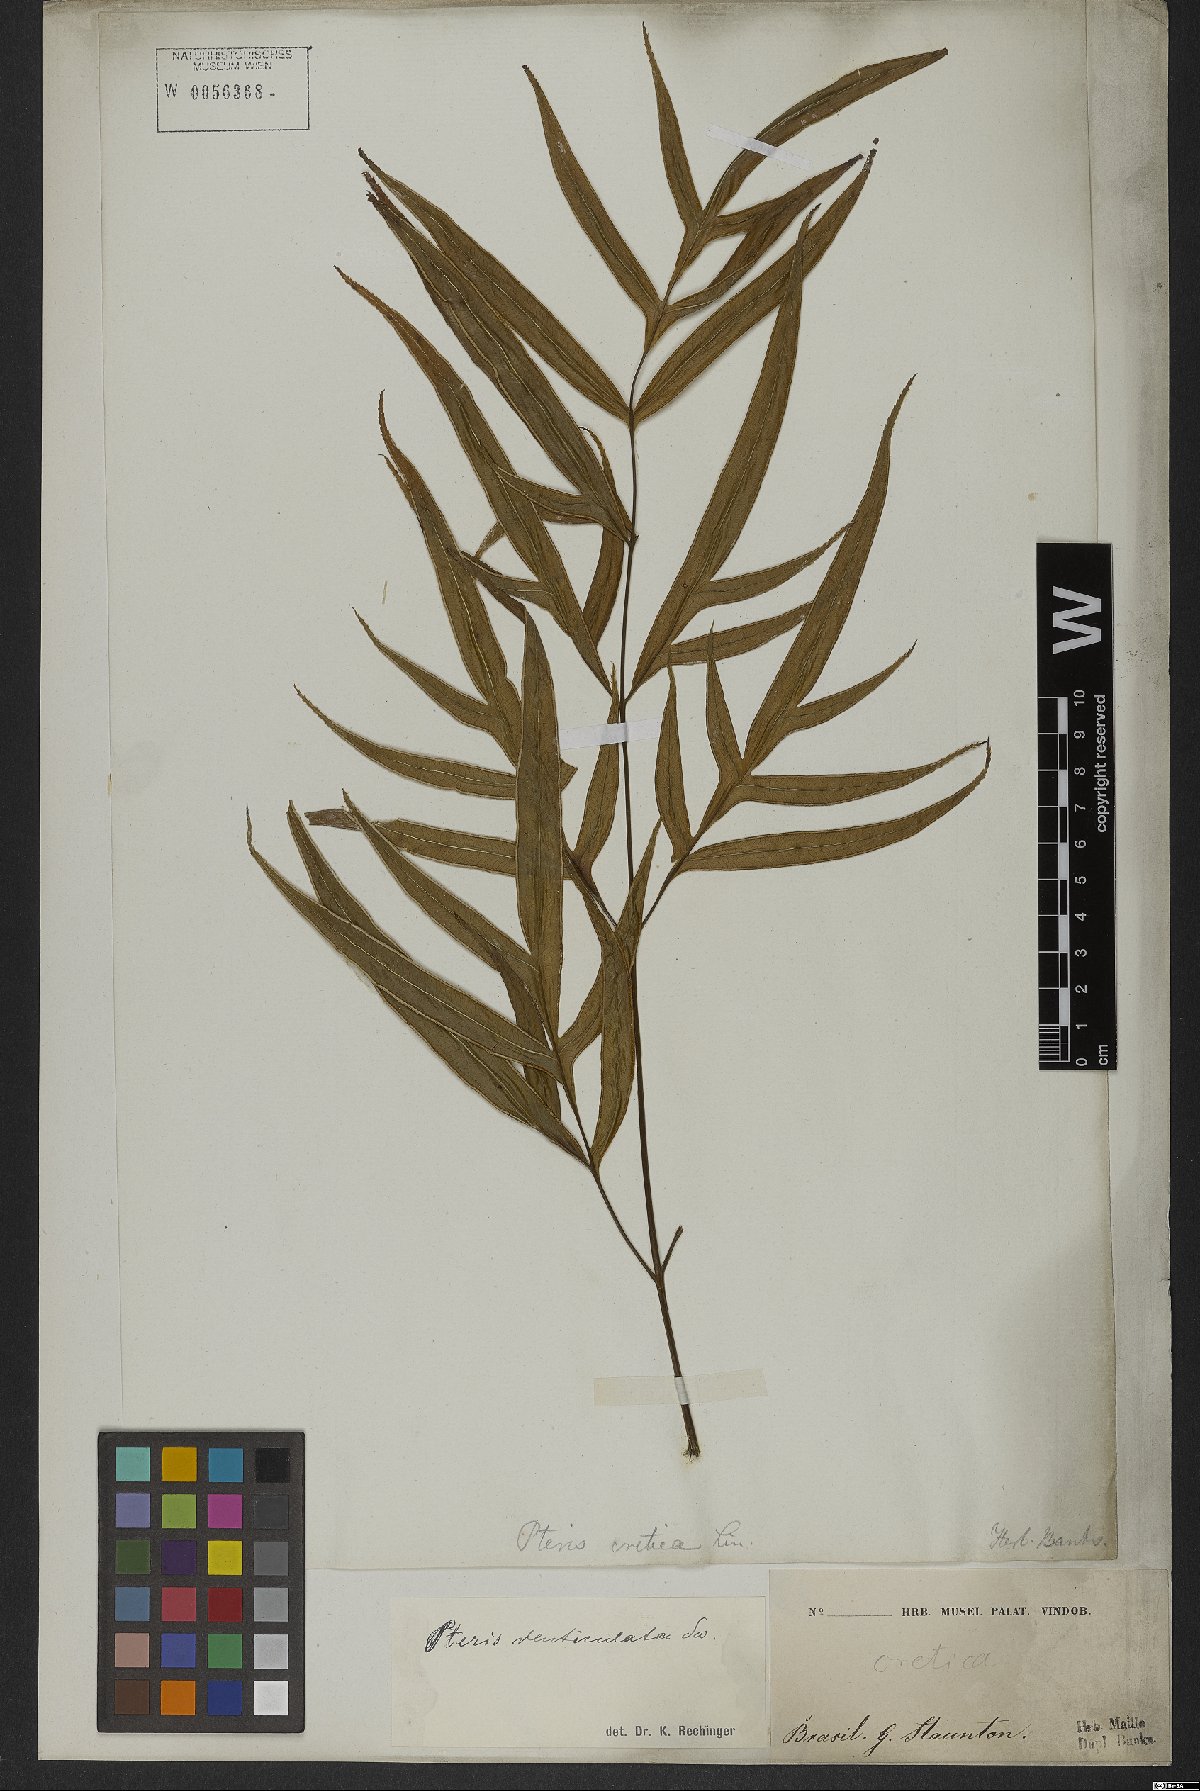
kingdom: Plantae
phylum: Tracheophyta
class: Polypodiopsida
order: Polypodiales
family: Pteridaceae
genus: Pteris
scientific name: Pteris denticulata
